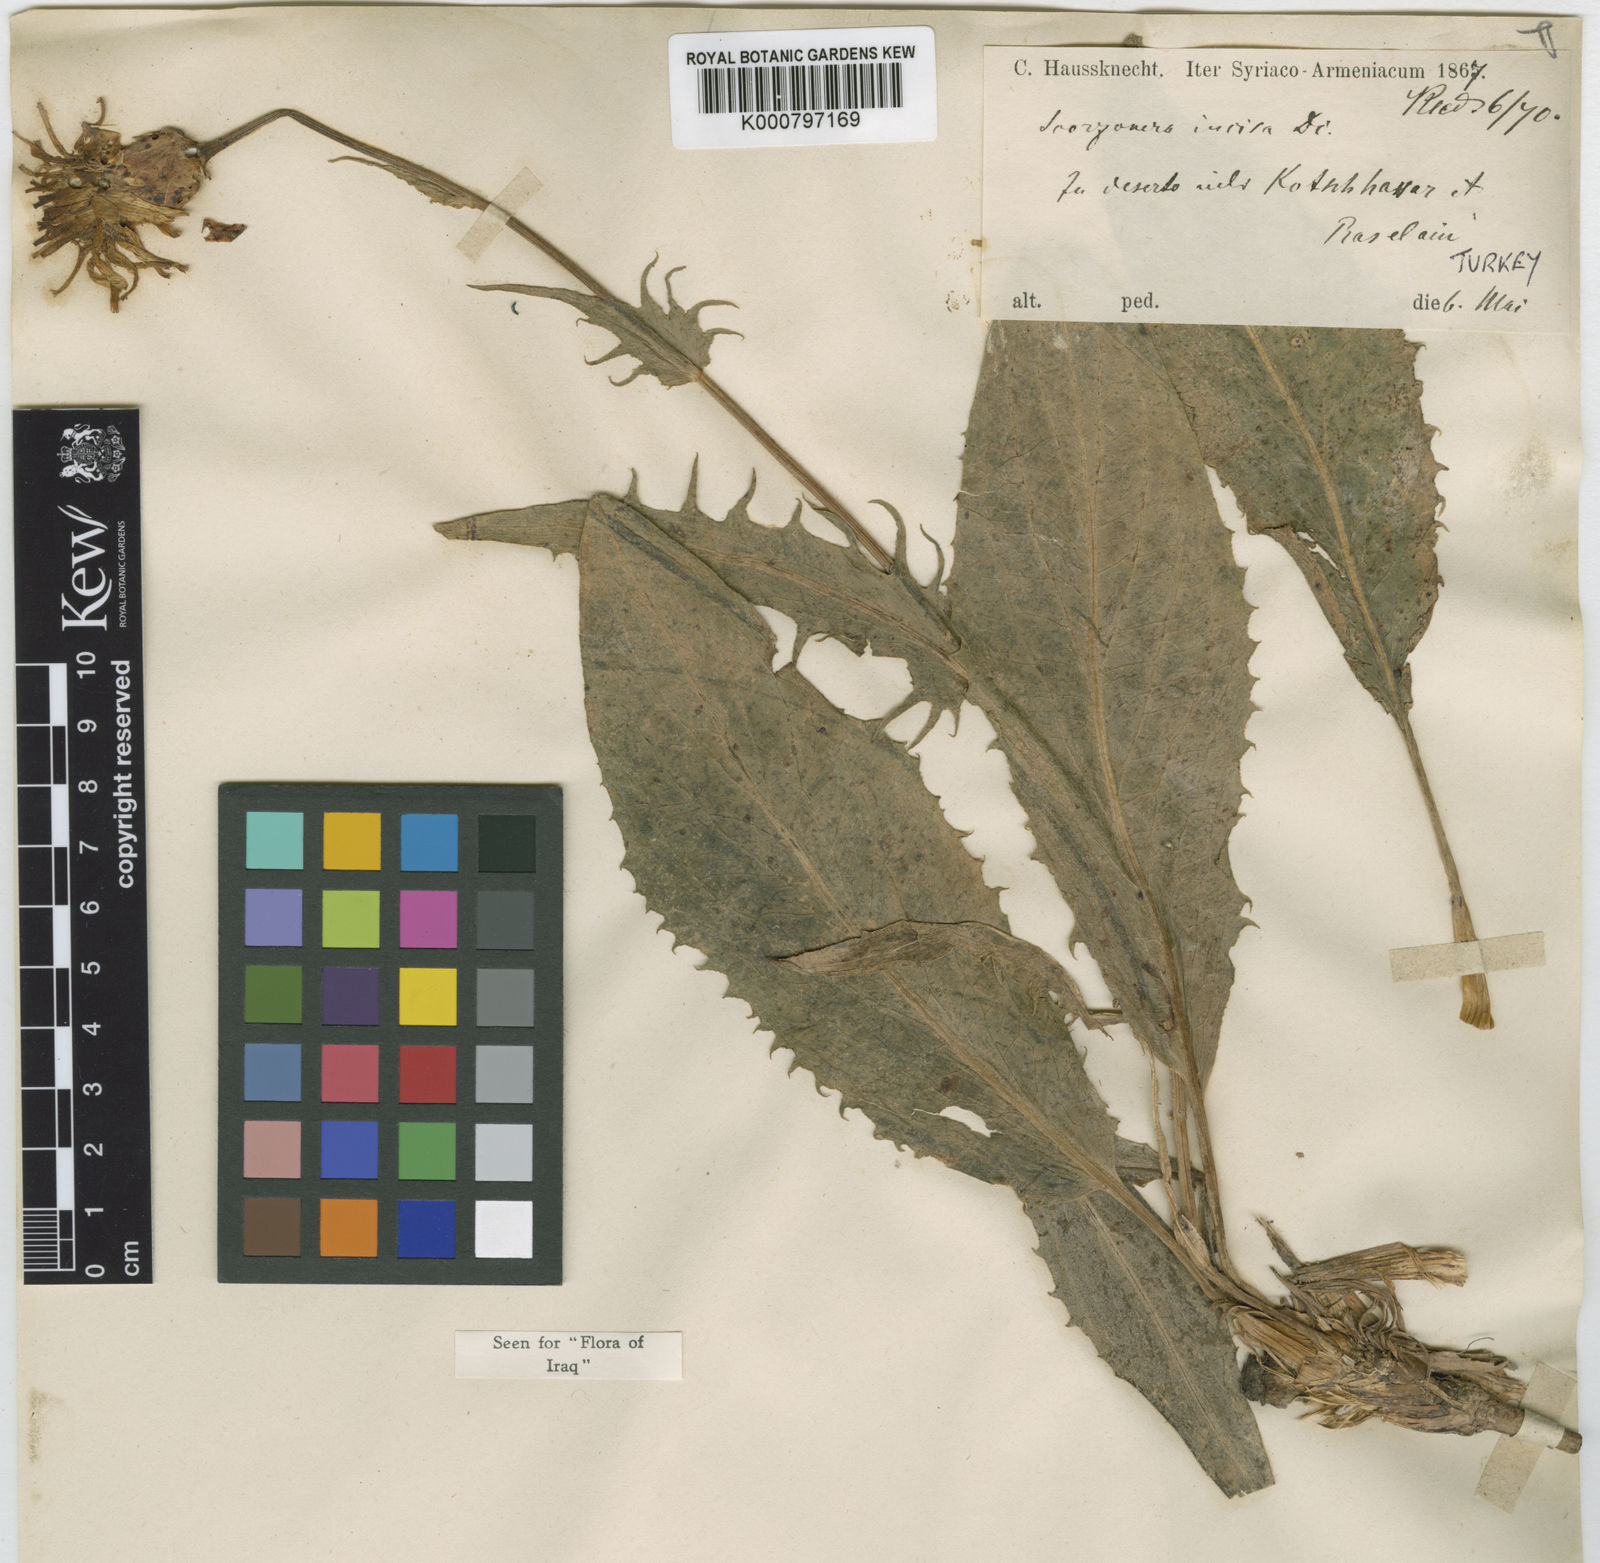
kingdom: Plantae
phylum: Tracheophyta
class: Magnoliopsida
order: Asterales
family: Asteraceae
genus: Aslia
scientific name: Aslia incisa
